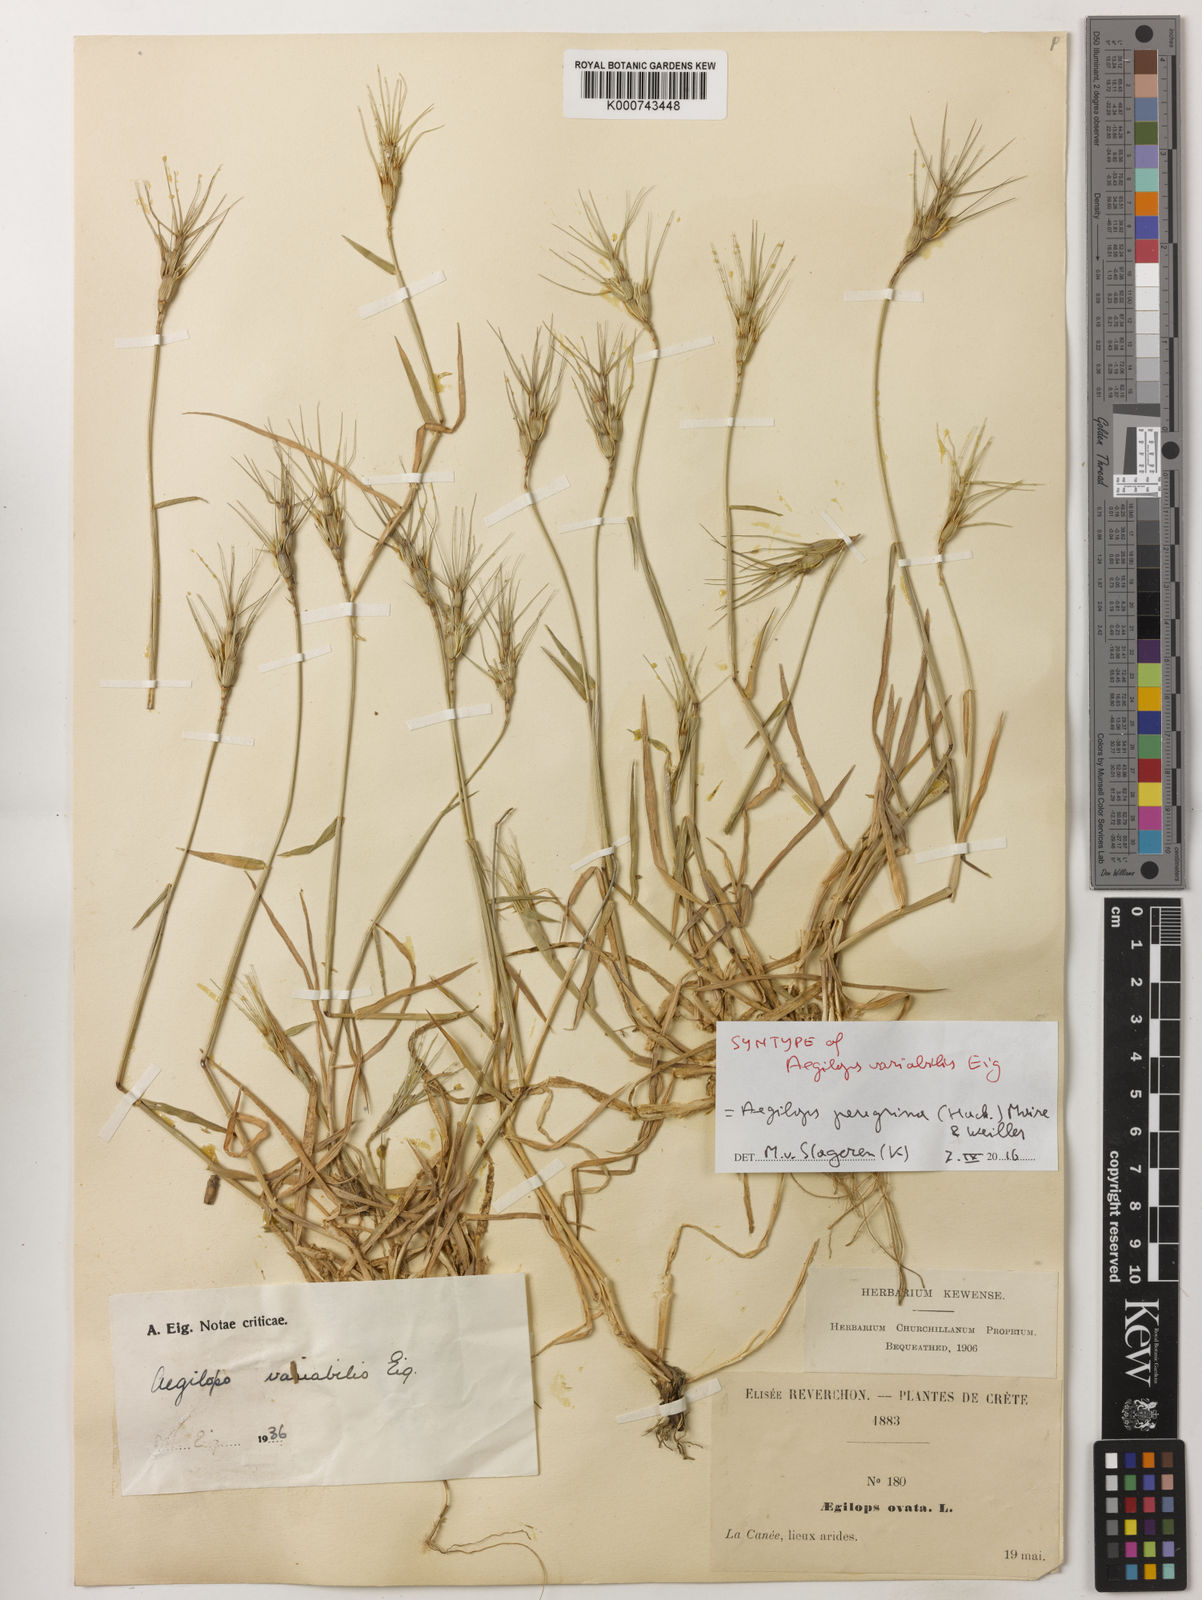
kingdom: Plantae
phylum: Tracheophyta
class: Liliopsida
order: Poales
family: Poaceae
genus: Aegilops
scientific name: Aegilops peregrina
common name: Goatgrass
